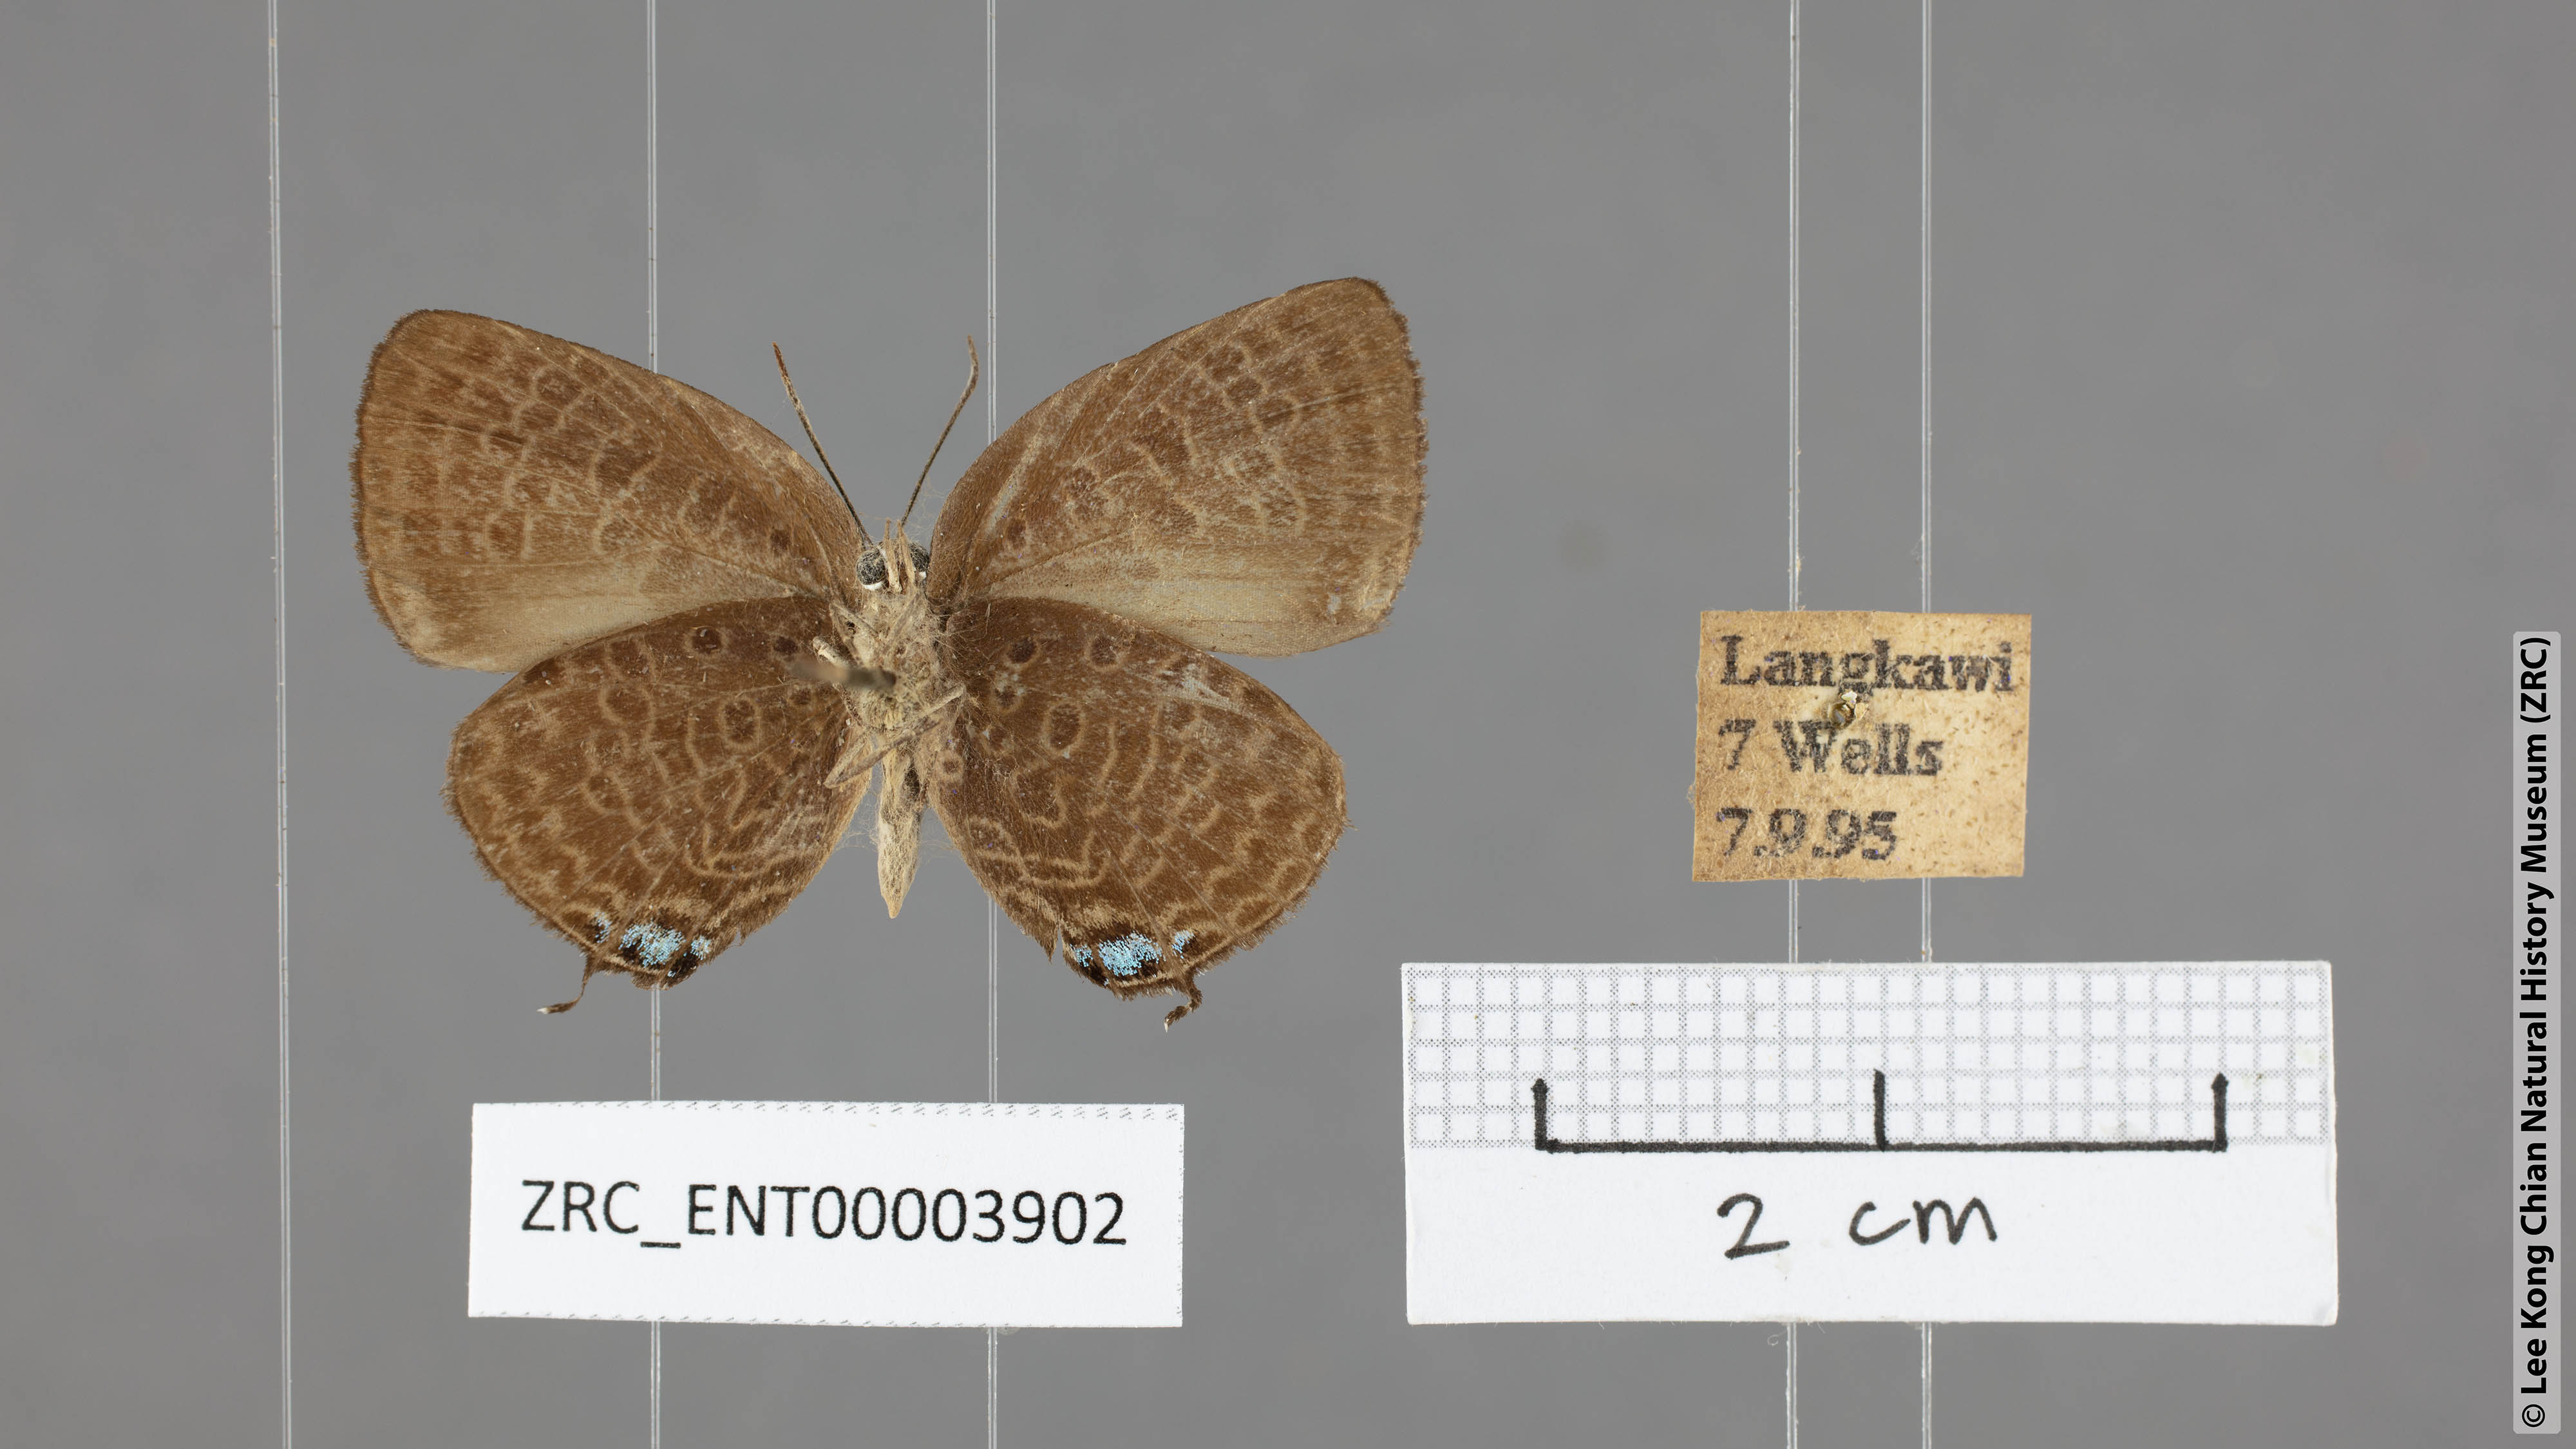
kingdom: Animalia
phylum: Arthropoda
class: Insecta
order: Lepidoptera
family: Lycaenidae
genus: Arhopala
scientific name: Arhopala delta
